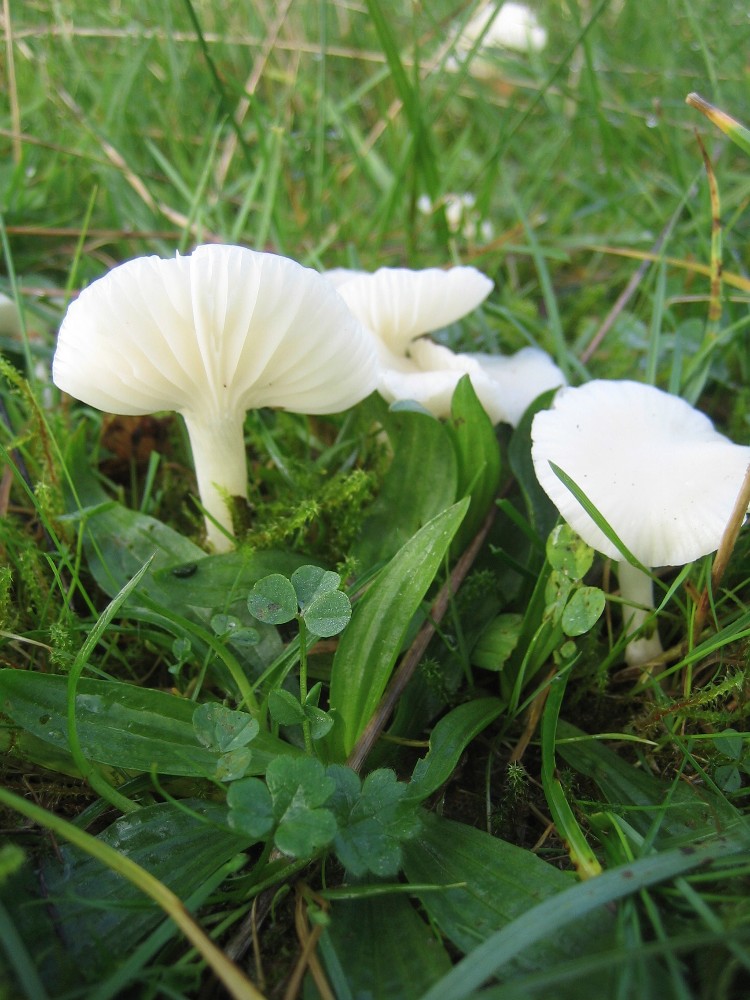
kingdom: Fungi
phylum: Basidiomycota
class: Agaricomycetes
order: Agaricales
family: Hygrophoraceae
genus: Cuphophyllus
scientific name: Cuphophyllus virgineus
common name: snehvid vokshat
